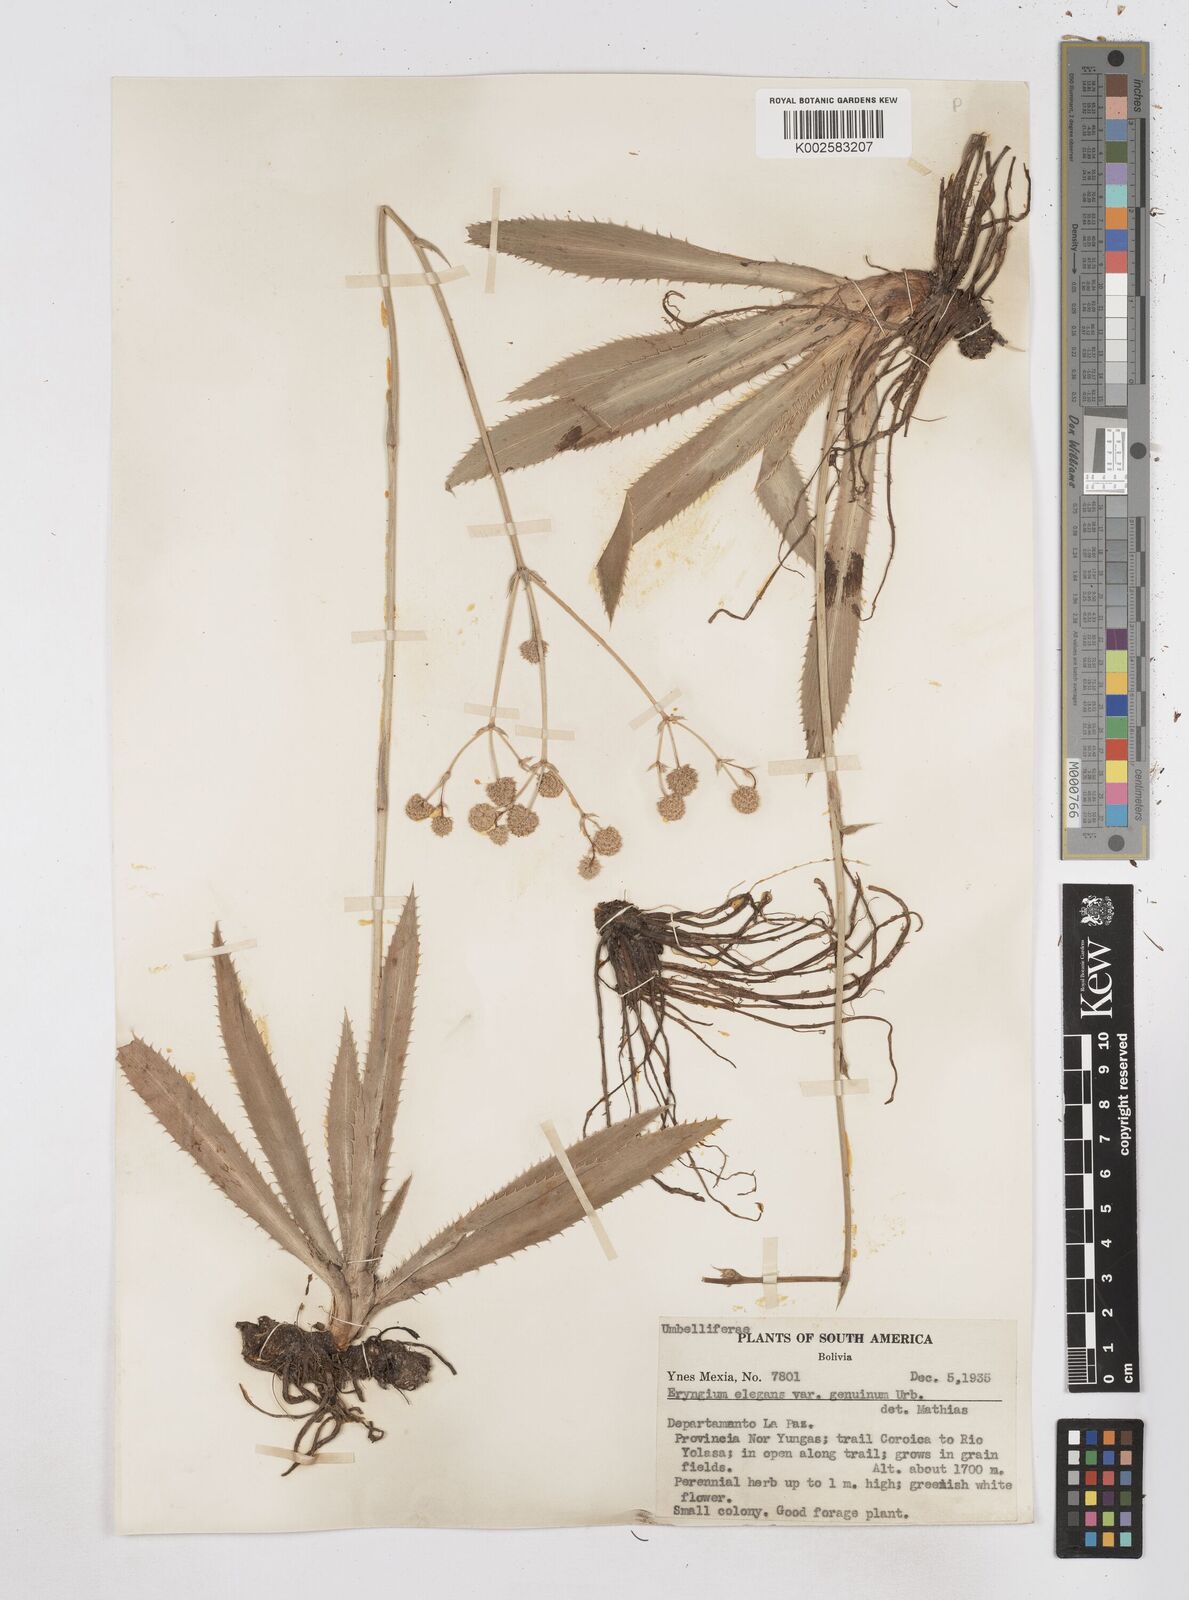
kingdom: Plantae
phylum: Tracheophyta
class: Magnoliopsida
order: Apiales
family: Apiaceae
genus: Eryngium
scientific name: Eryngium elegans
